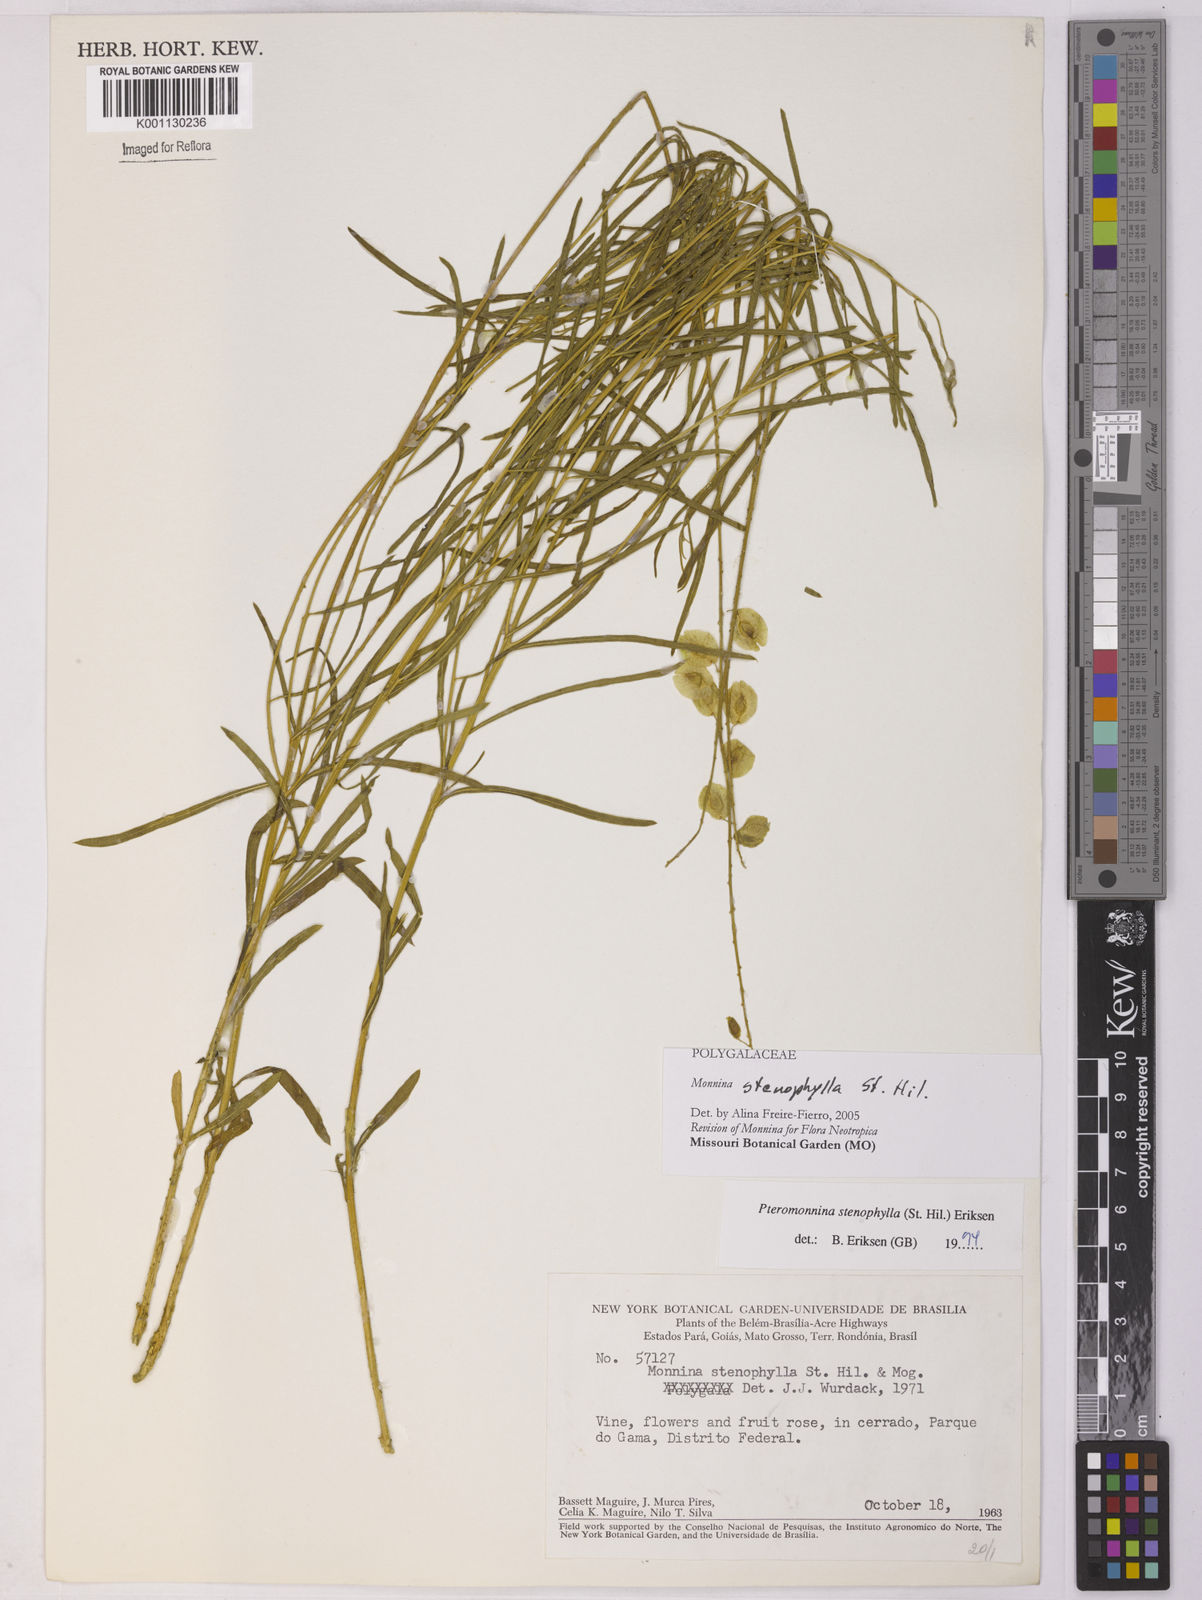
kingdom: Plantae
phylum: Tracheophyta
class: Magnoliopsida
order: Fabales
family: Polygalaceae
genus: Monnina
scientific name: Monnina stenophylla
